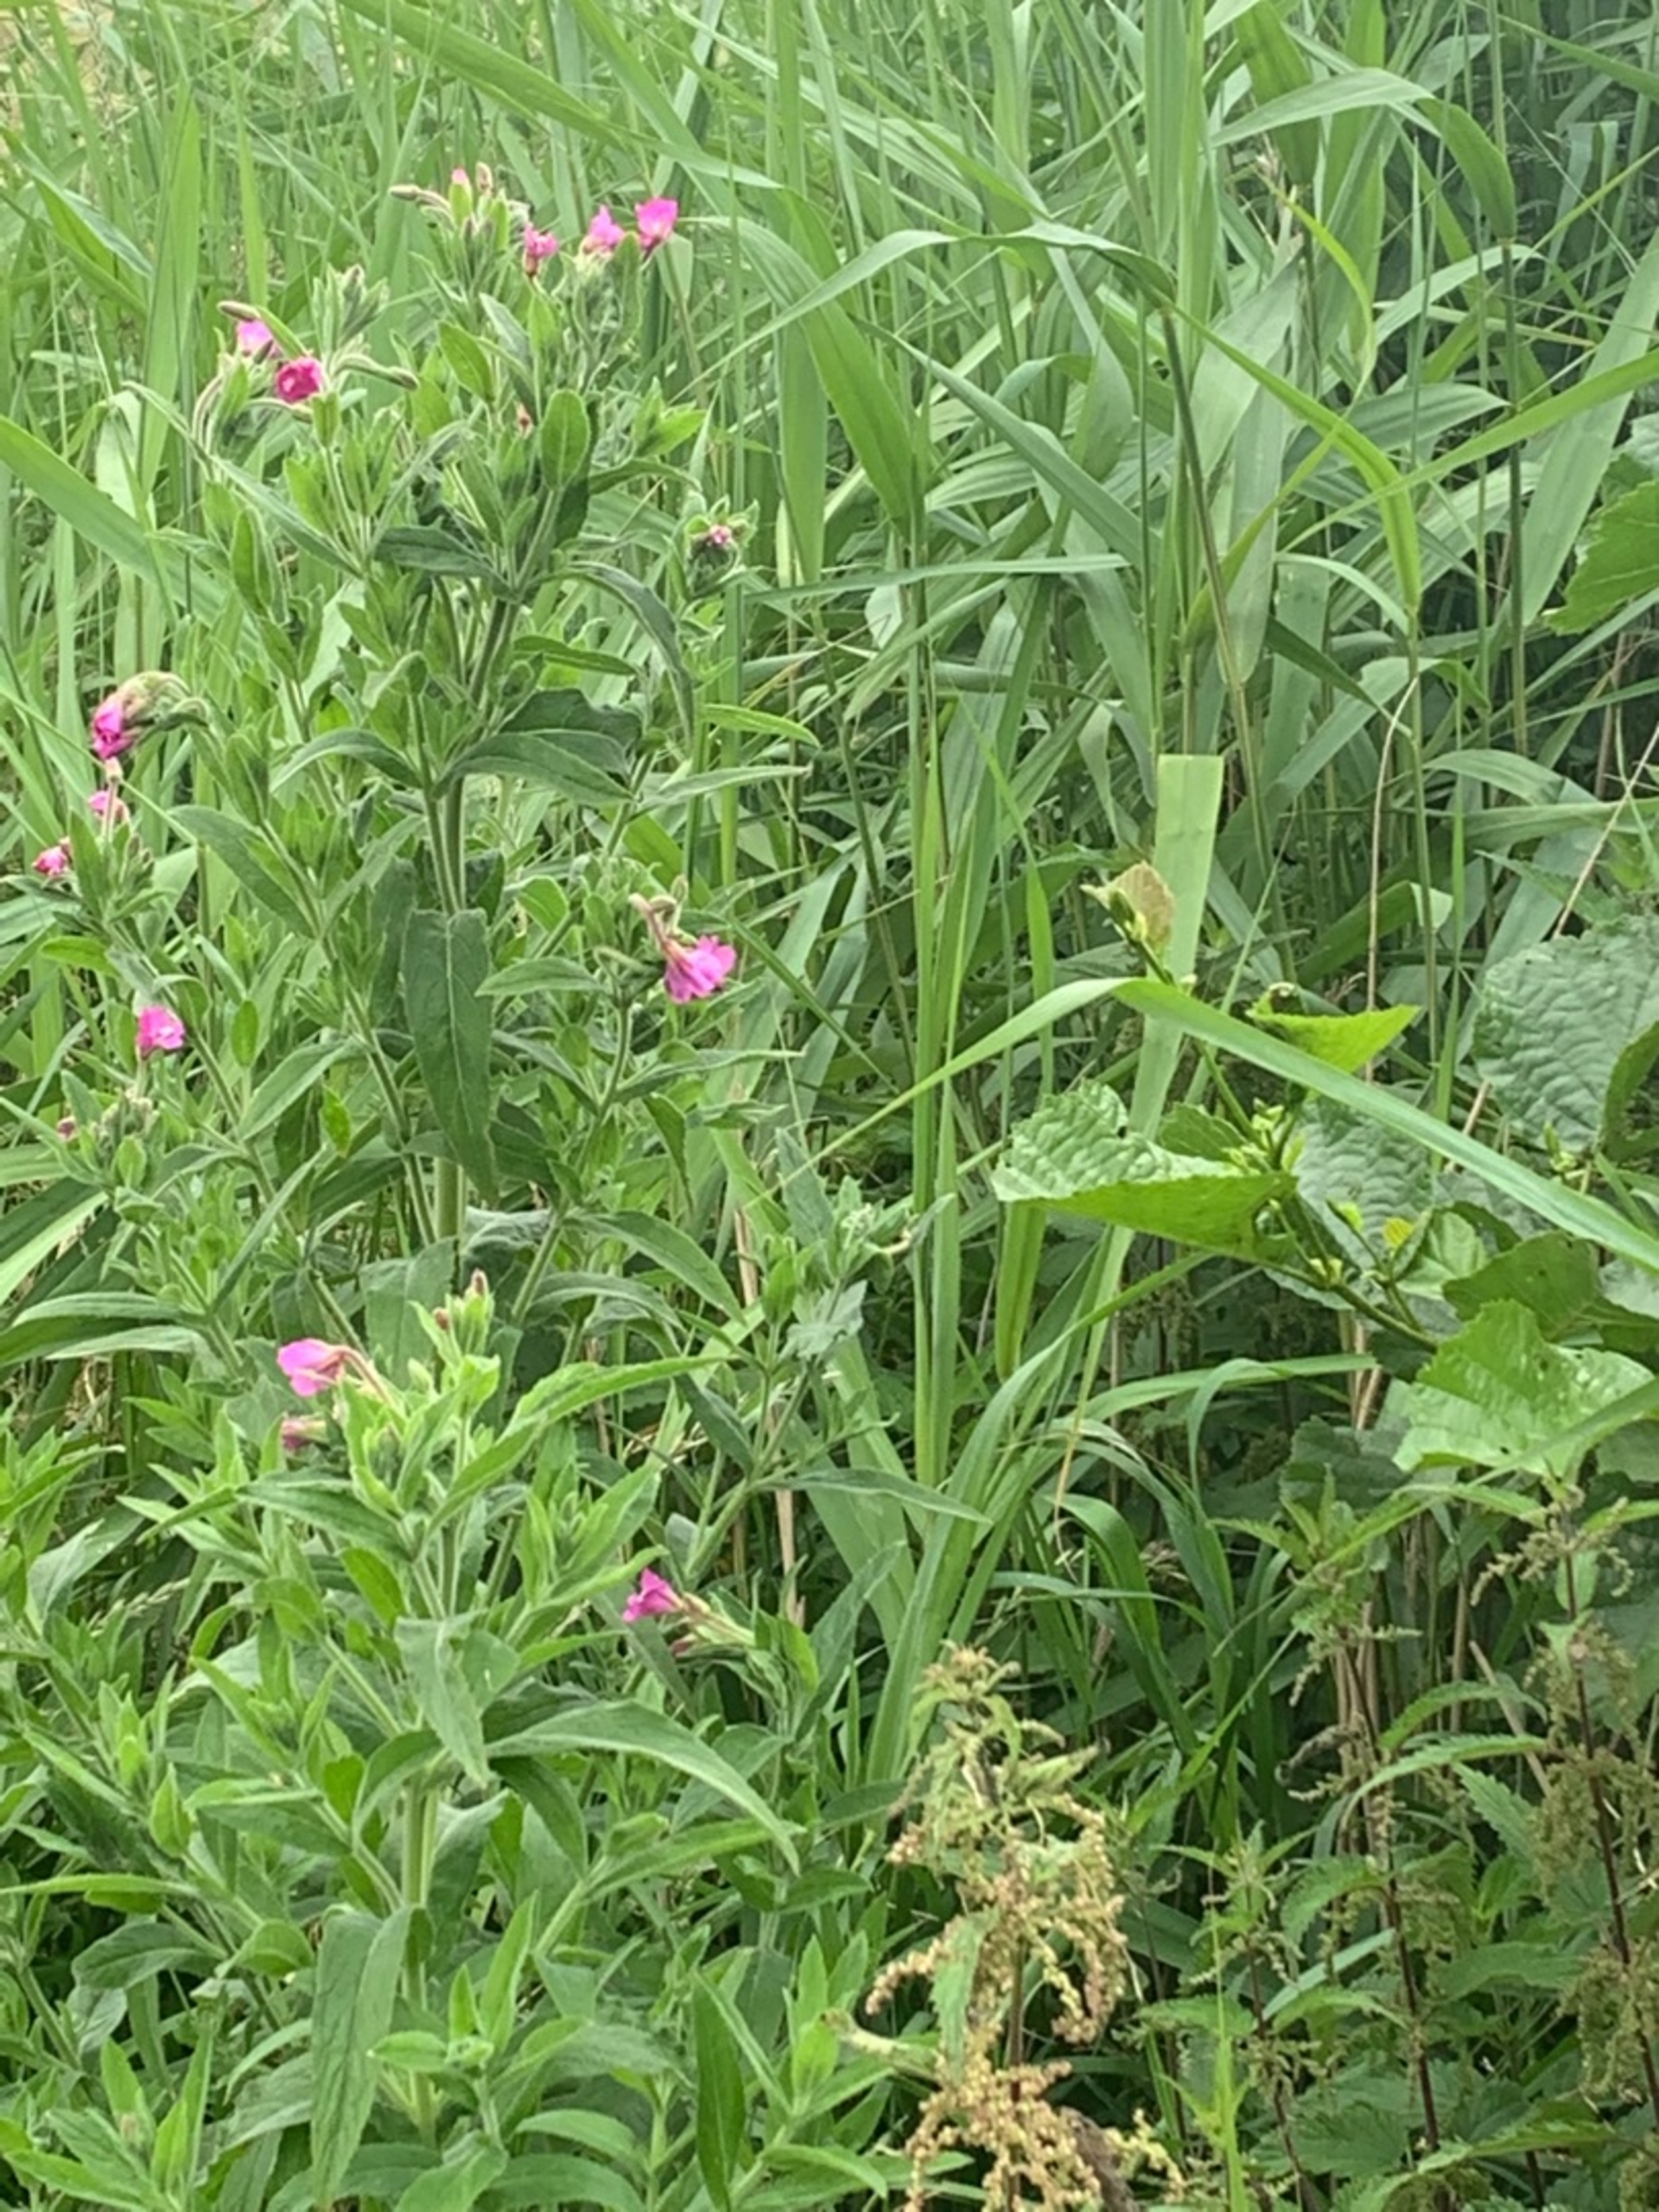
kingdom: Plantae
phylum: Tracheophyta
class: Magnoliopsida
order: Myrtales
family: Onagraceae
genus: Epilobium
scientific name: Epilobium hirsutum
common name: Lådden dueurt
